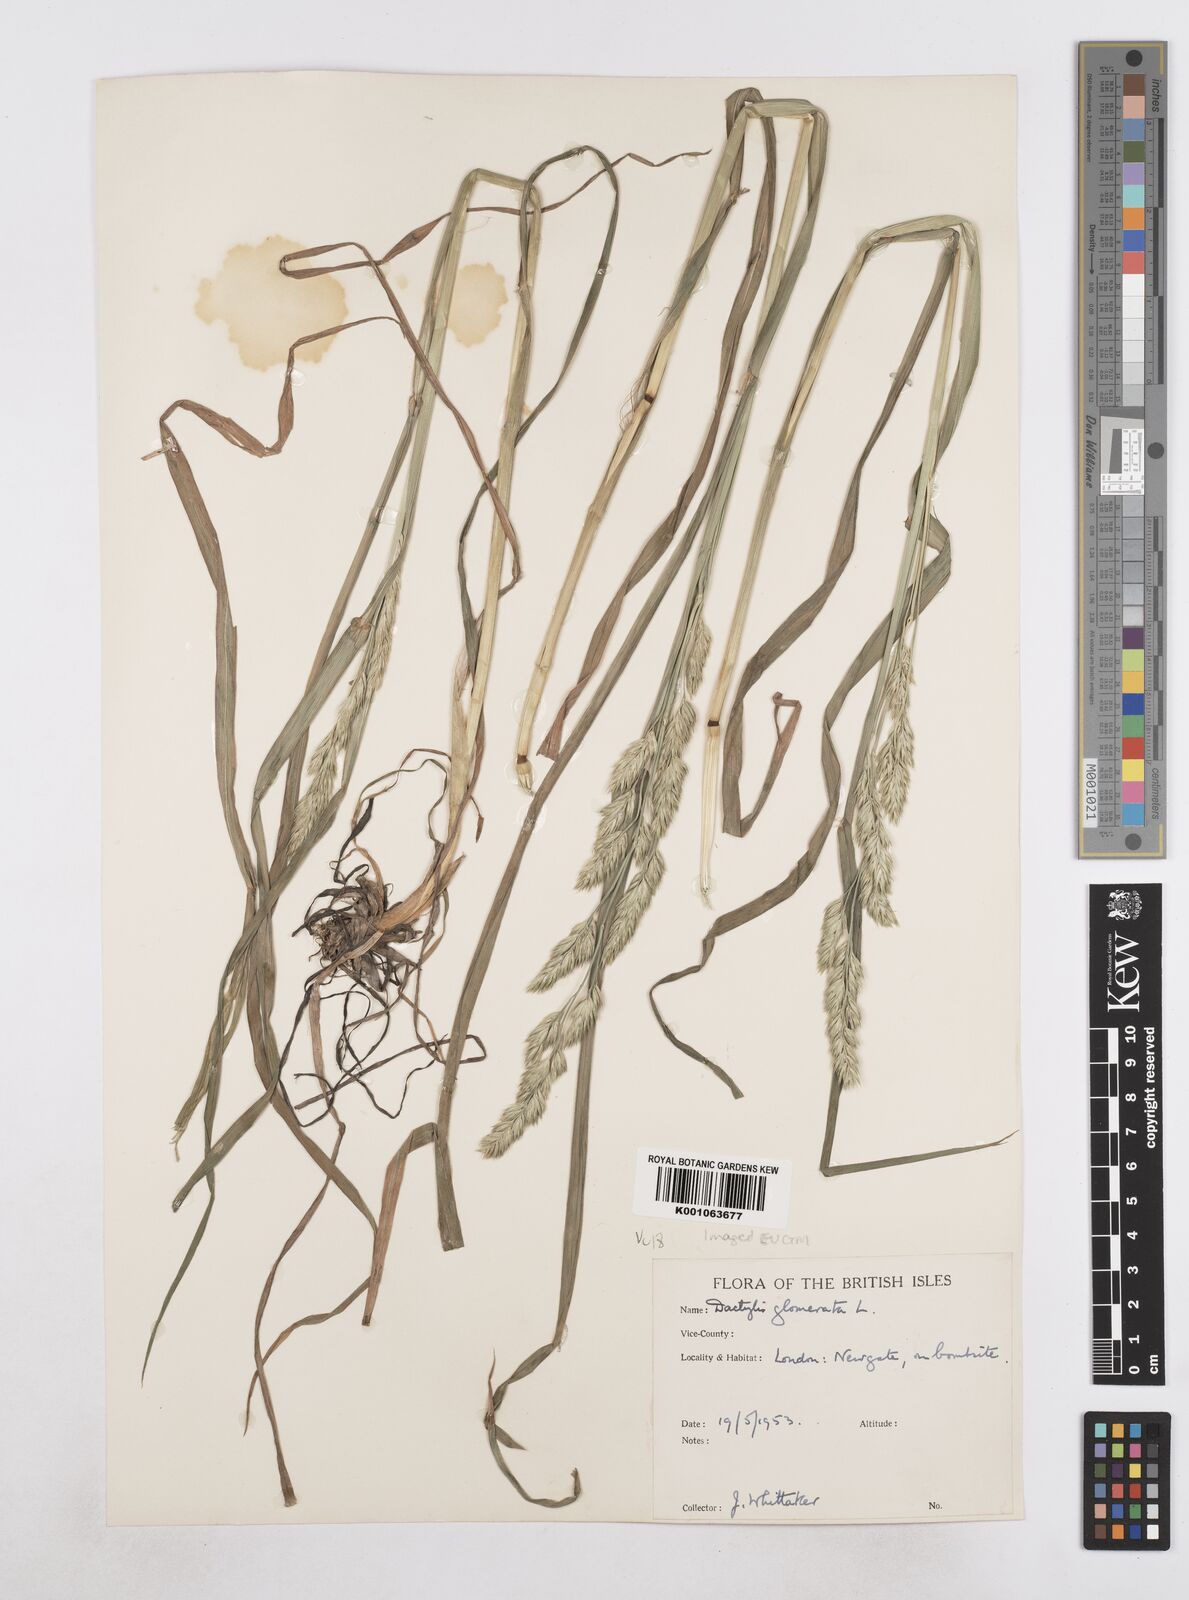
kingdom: Plantae
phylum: Tracheophyta
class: Liliopsida
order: Poales
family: Poaceae
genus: Dactylis
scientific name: Dactylis glomerata
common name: Orchardgrass
